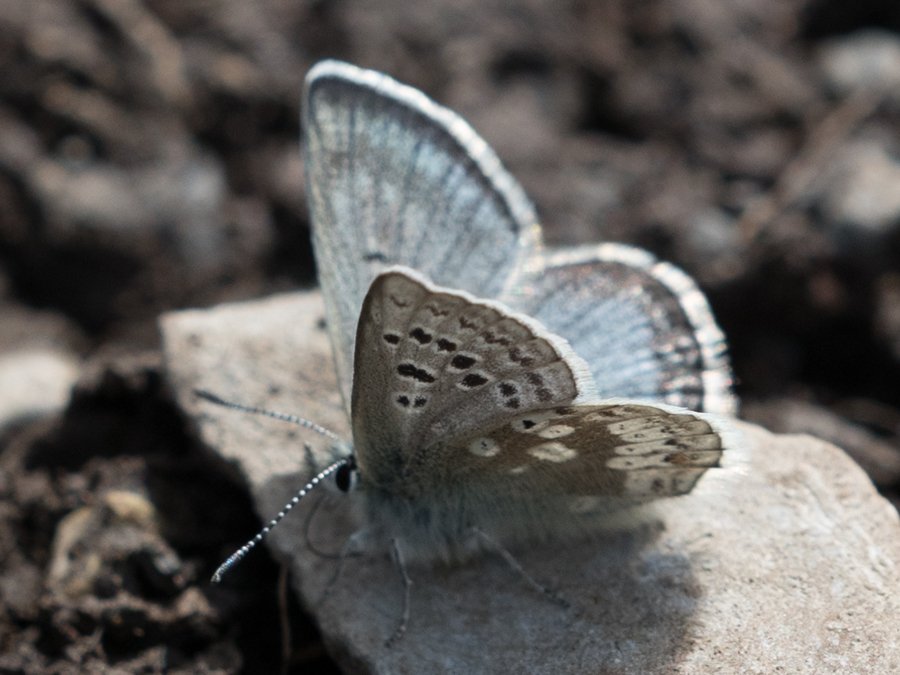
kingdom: Animalia
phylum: Arthropoda
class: Insecta
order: Lepidoptera
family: Lycaenidae
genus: Agriades
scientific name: Agriades glandon
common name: Arctic Blue
